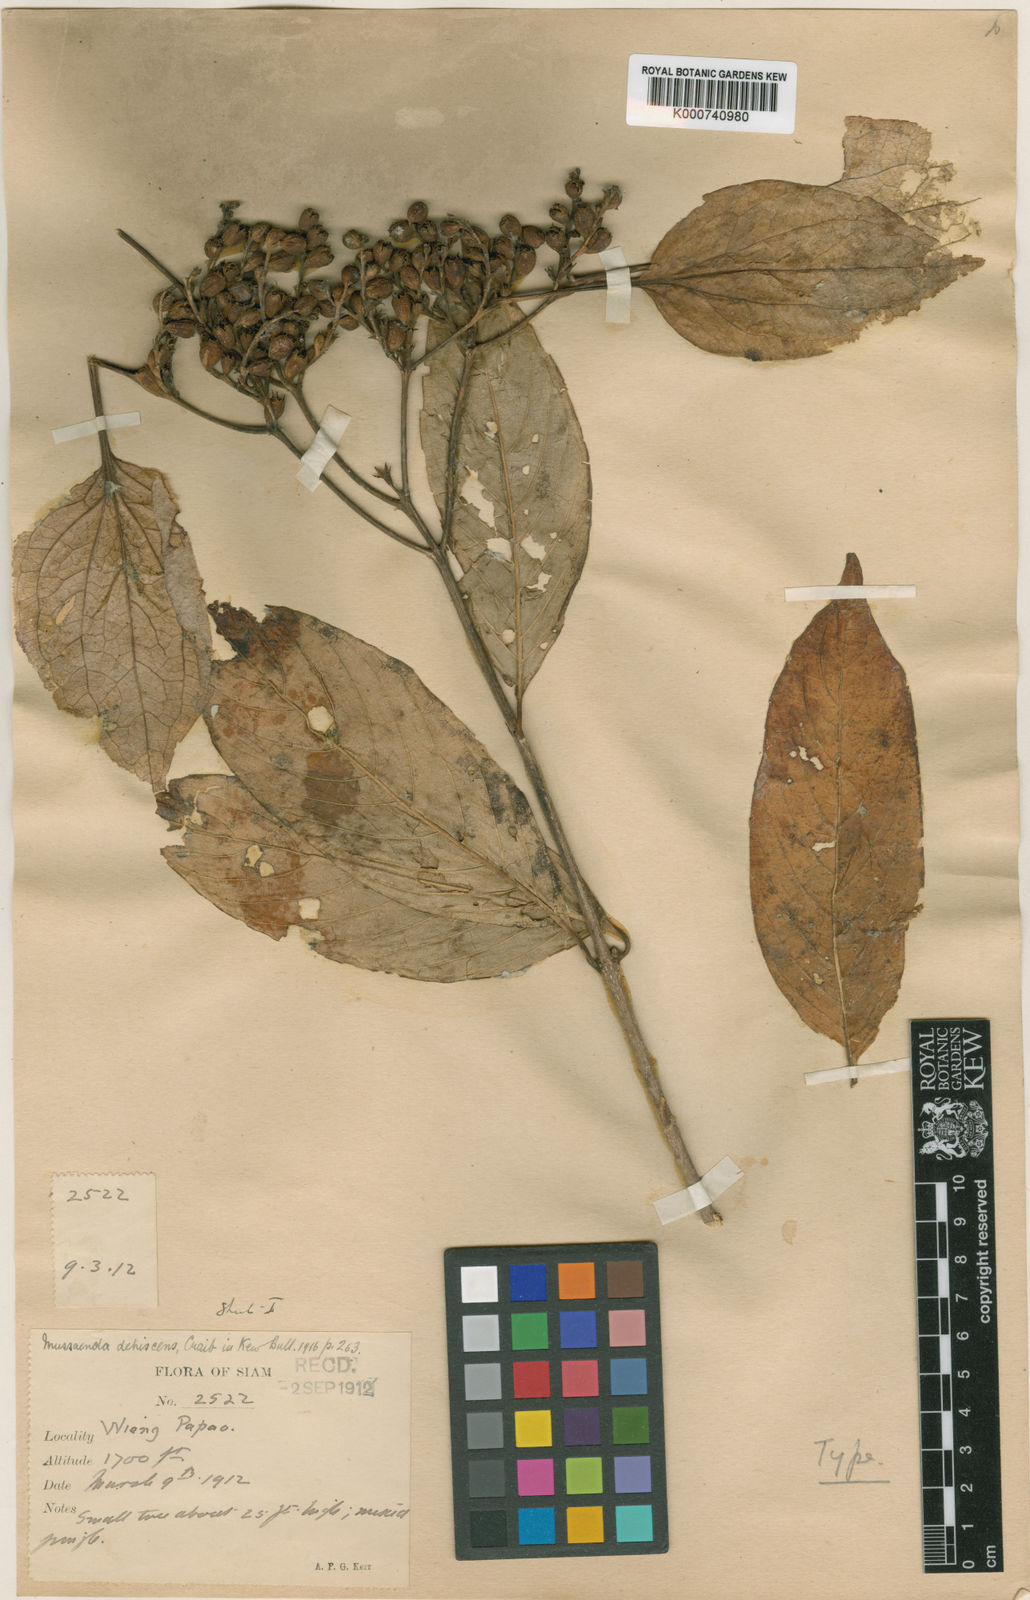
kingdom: Plantae
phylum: Tracheophyta
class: Magnoliopsida
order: Gentianales
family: Rubiaceae
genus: Schizomussaenda
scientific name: Schizomussaenda henryi
